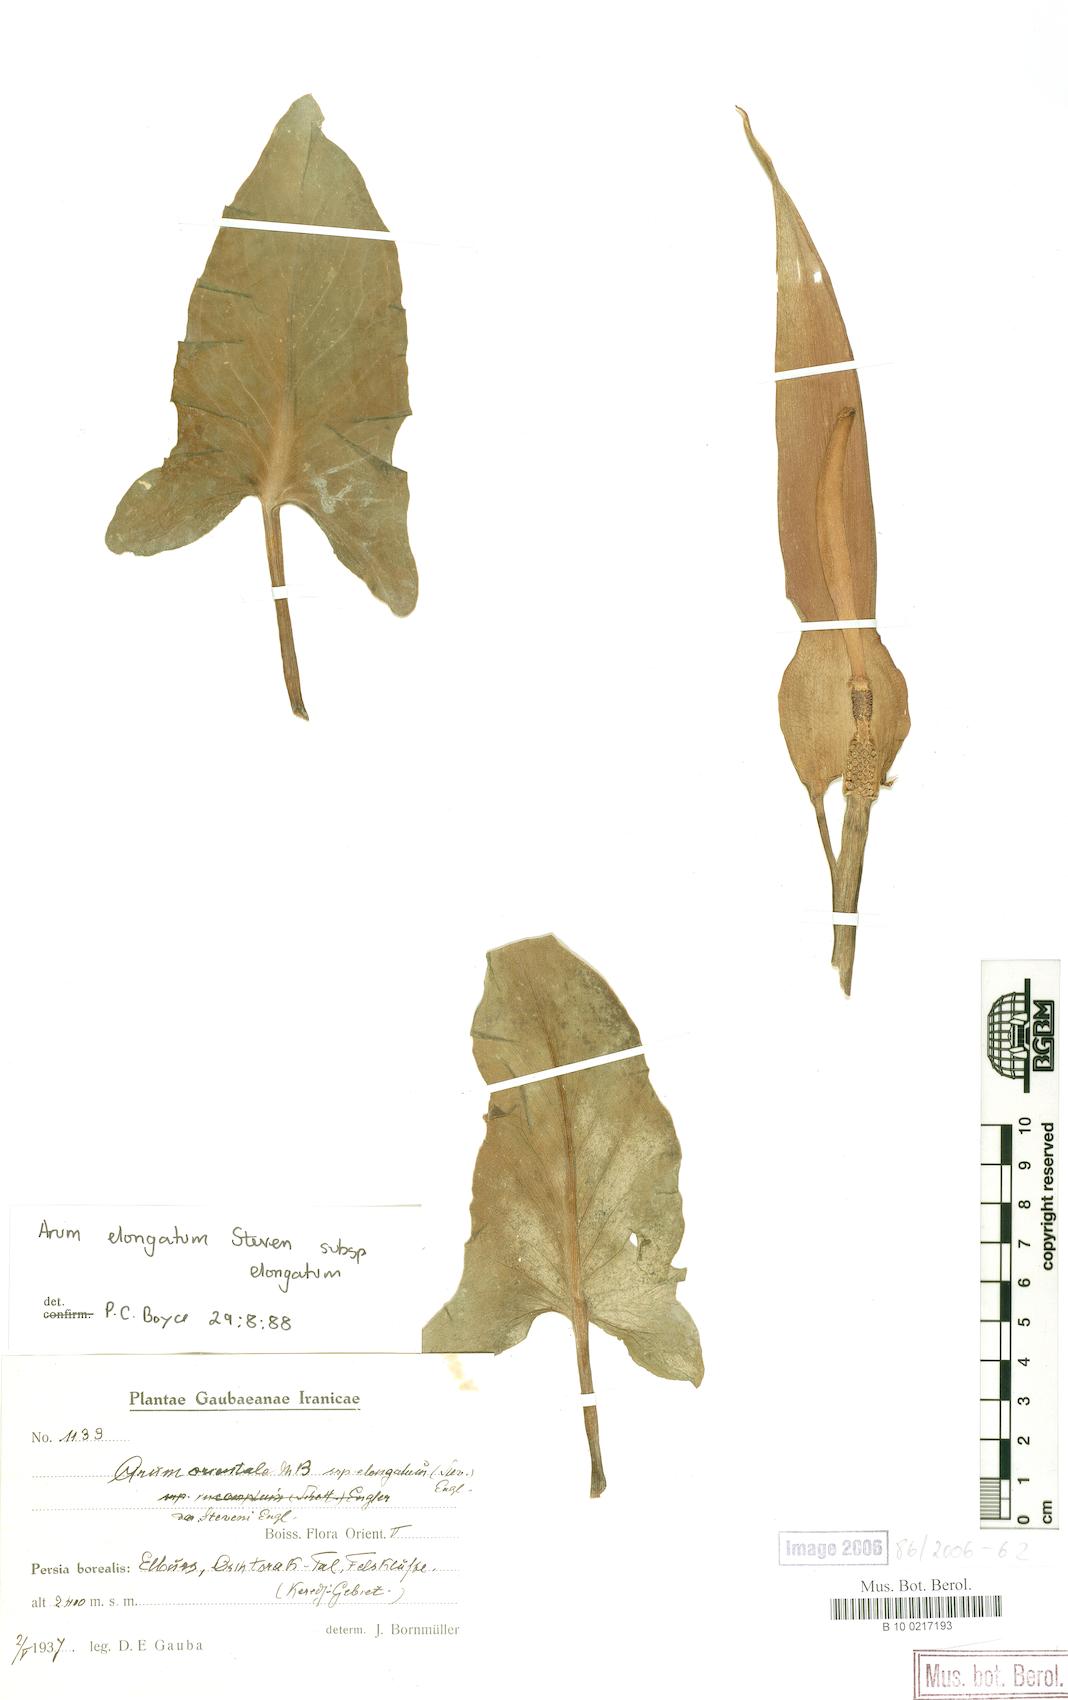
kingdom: Plantae
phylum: Tracheophyta
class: Liliopsida
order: Alismatales
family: Araceae
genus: Arum
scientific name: Arum orientale
